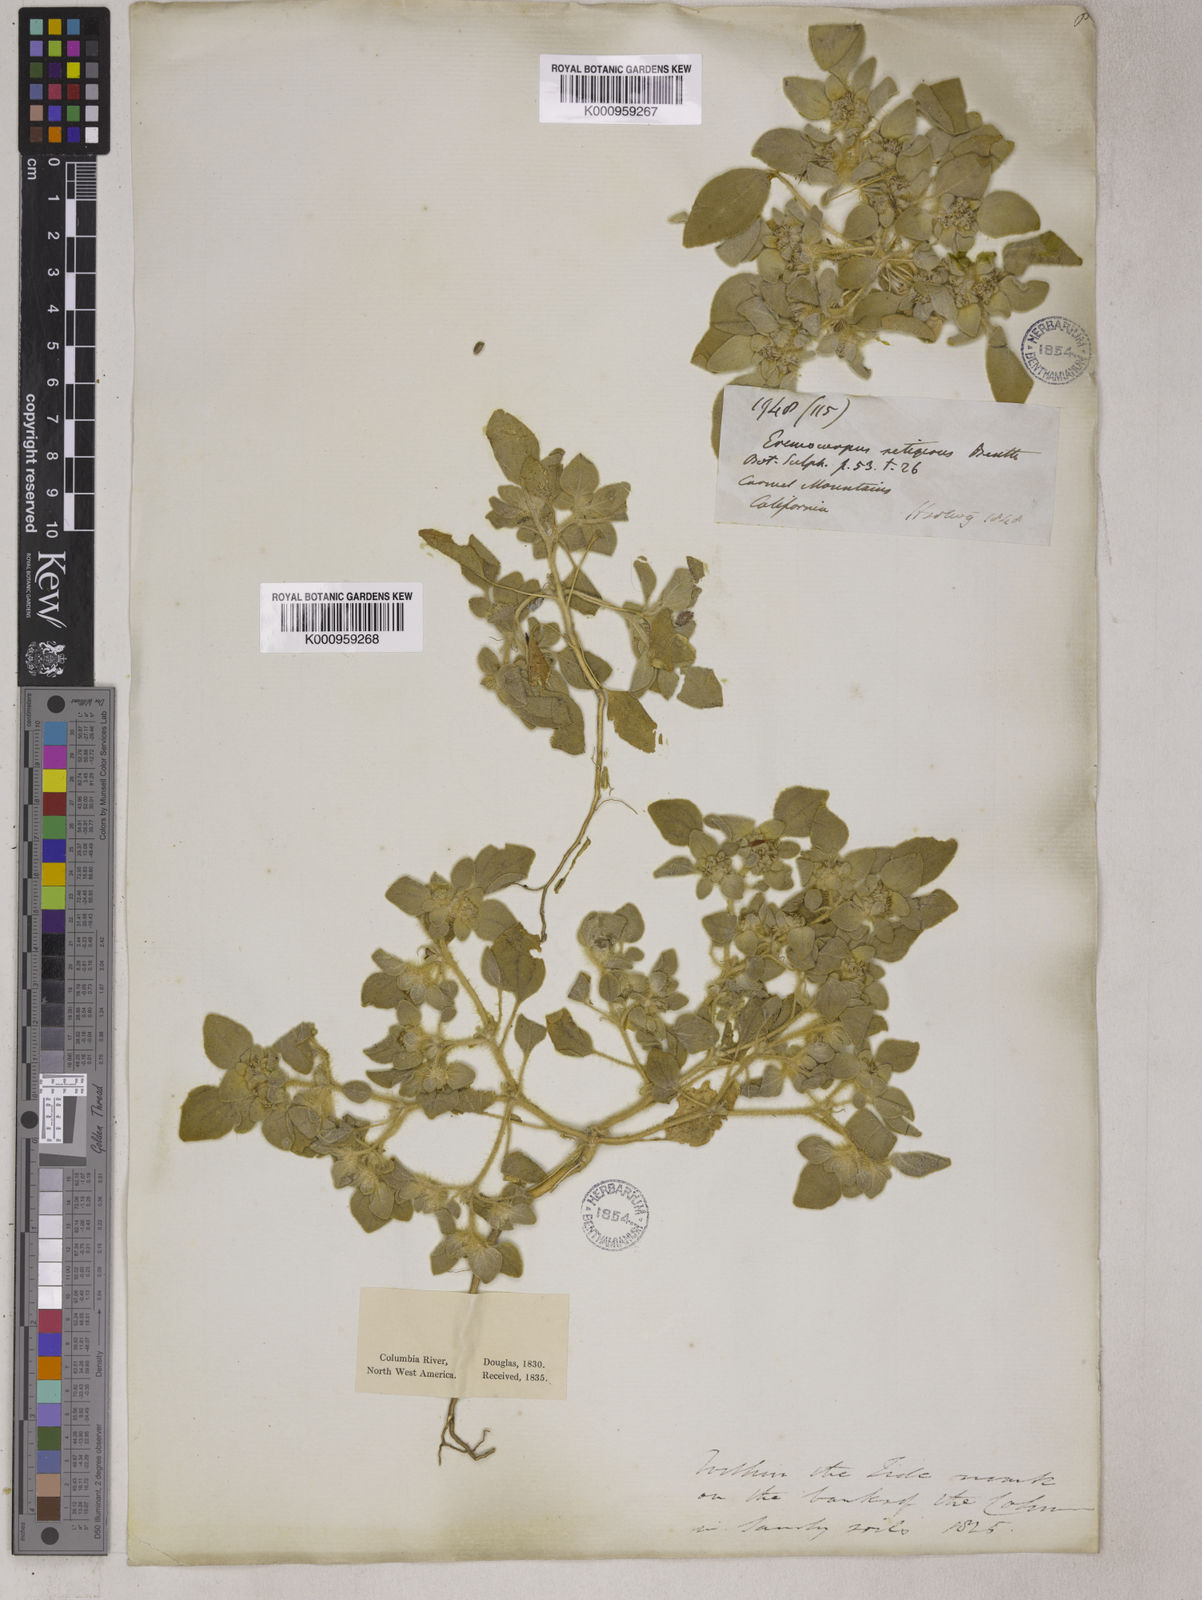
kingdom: Plantae
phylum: Tracheophyta
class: Magnoliopsida
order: Apiales
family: Apiaceae
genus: Eremocarpus
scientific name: Eremocarpus
